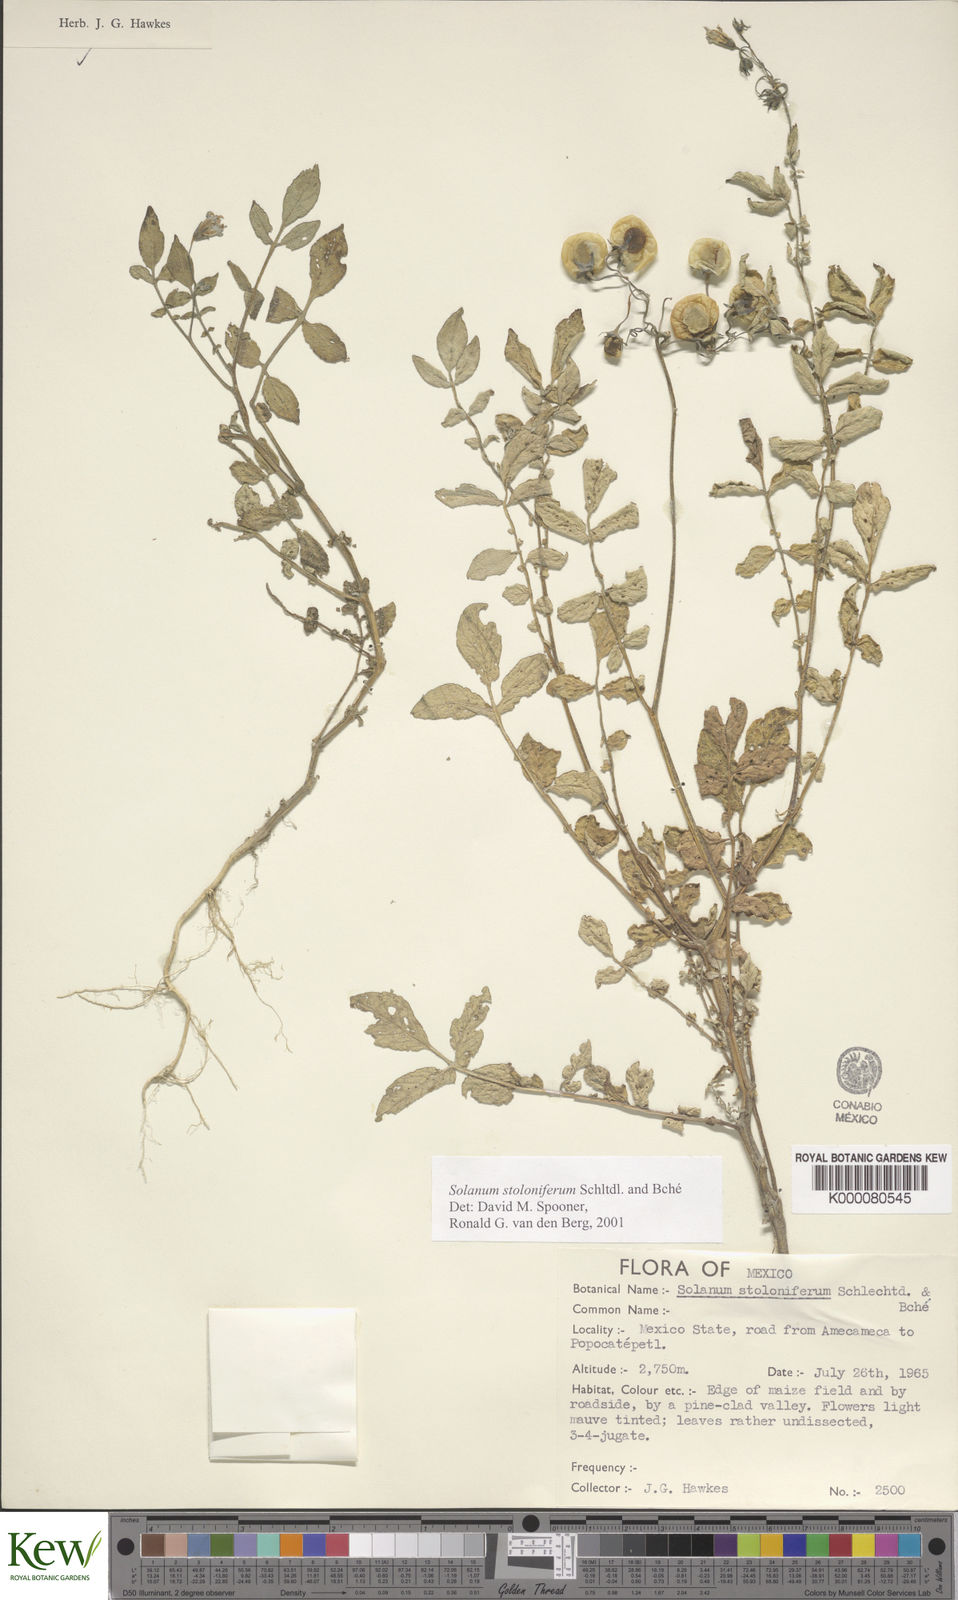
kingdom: Plantae
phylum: Tracheophyta
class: Magnoliopsida
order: Solanales
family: Solanaceae
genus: Solanum
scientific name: Solanum stoloniferum
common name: Fendler's nighshade
